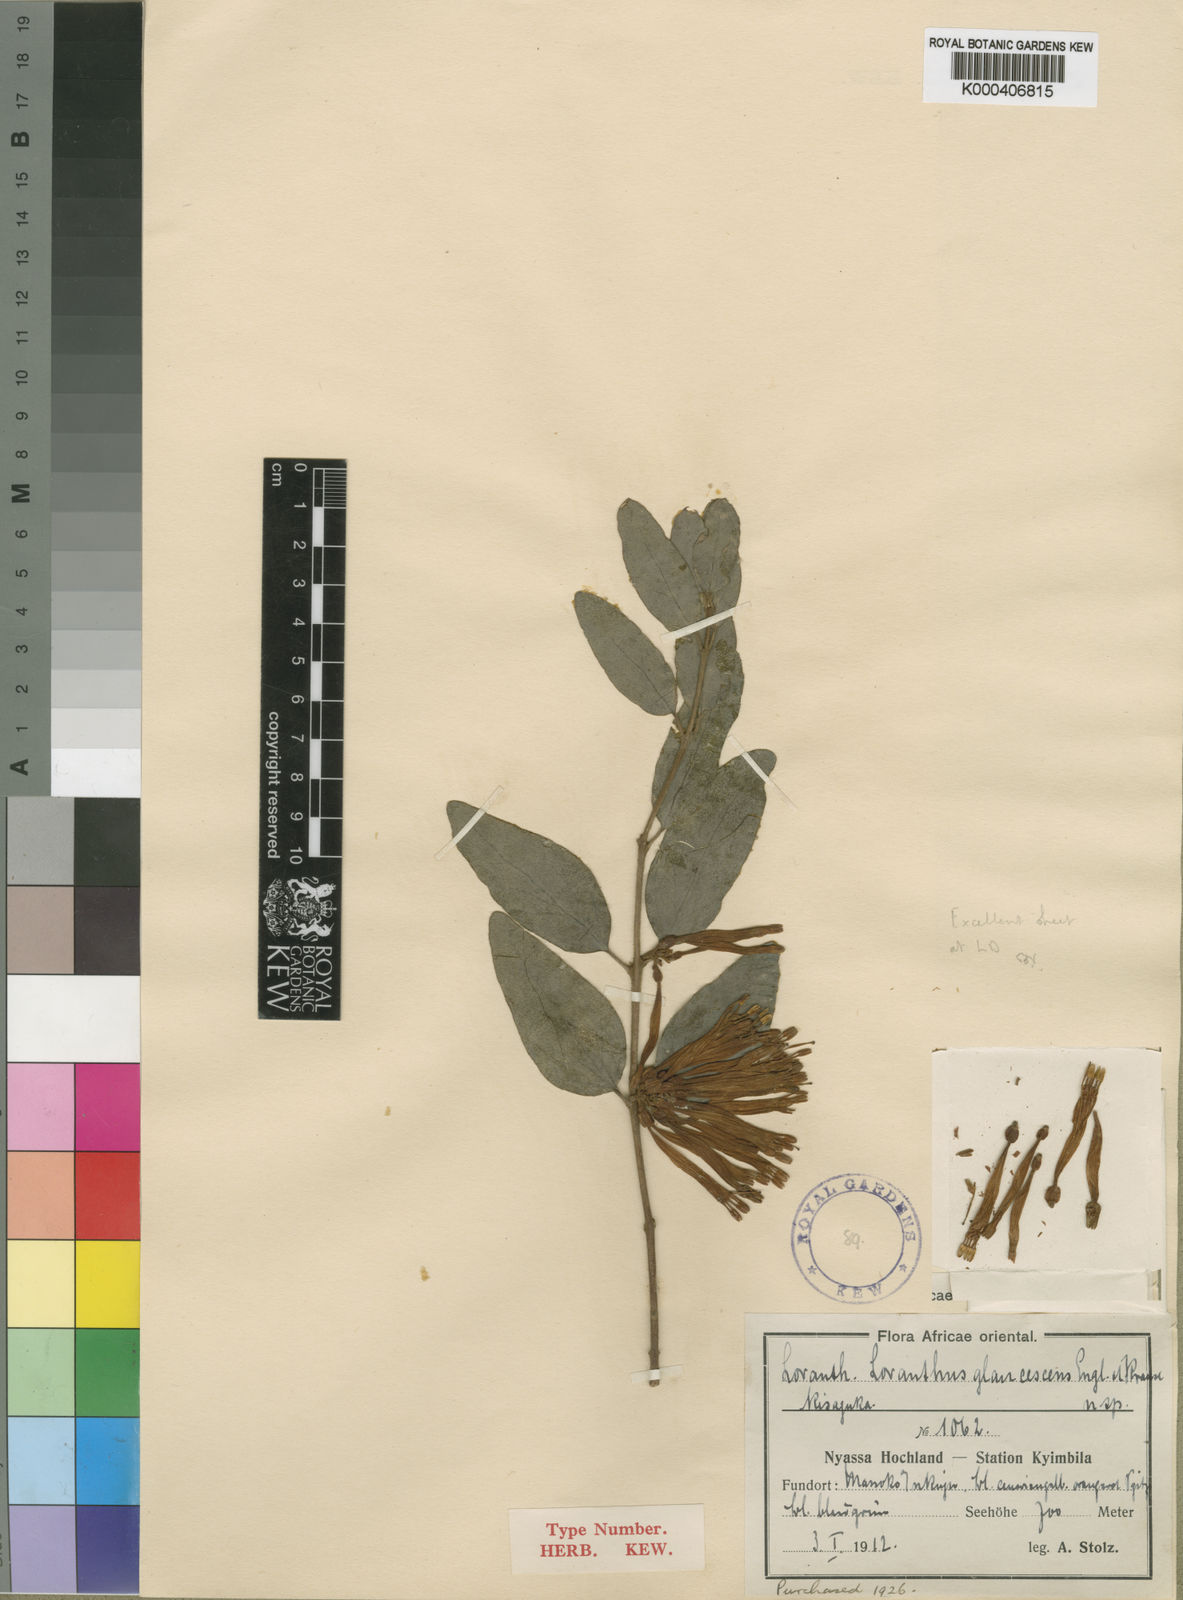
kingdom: Plantae
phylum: Tracheophyta
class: Magnoliopsida
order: Santalales
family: Loranthaceae
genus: Agelanthus
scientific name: Agelanthus pungu
